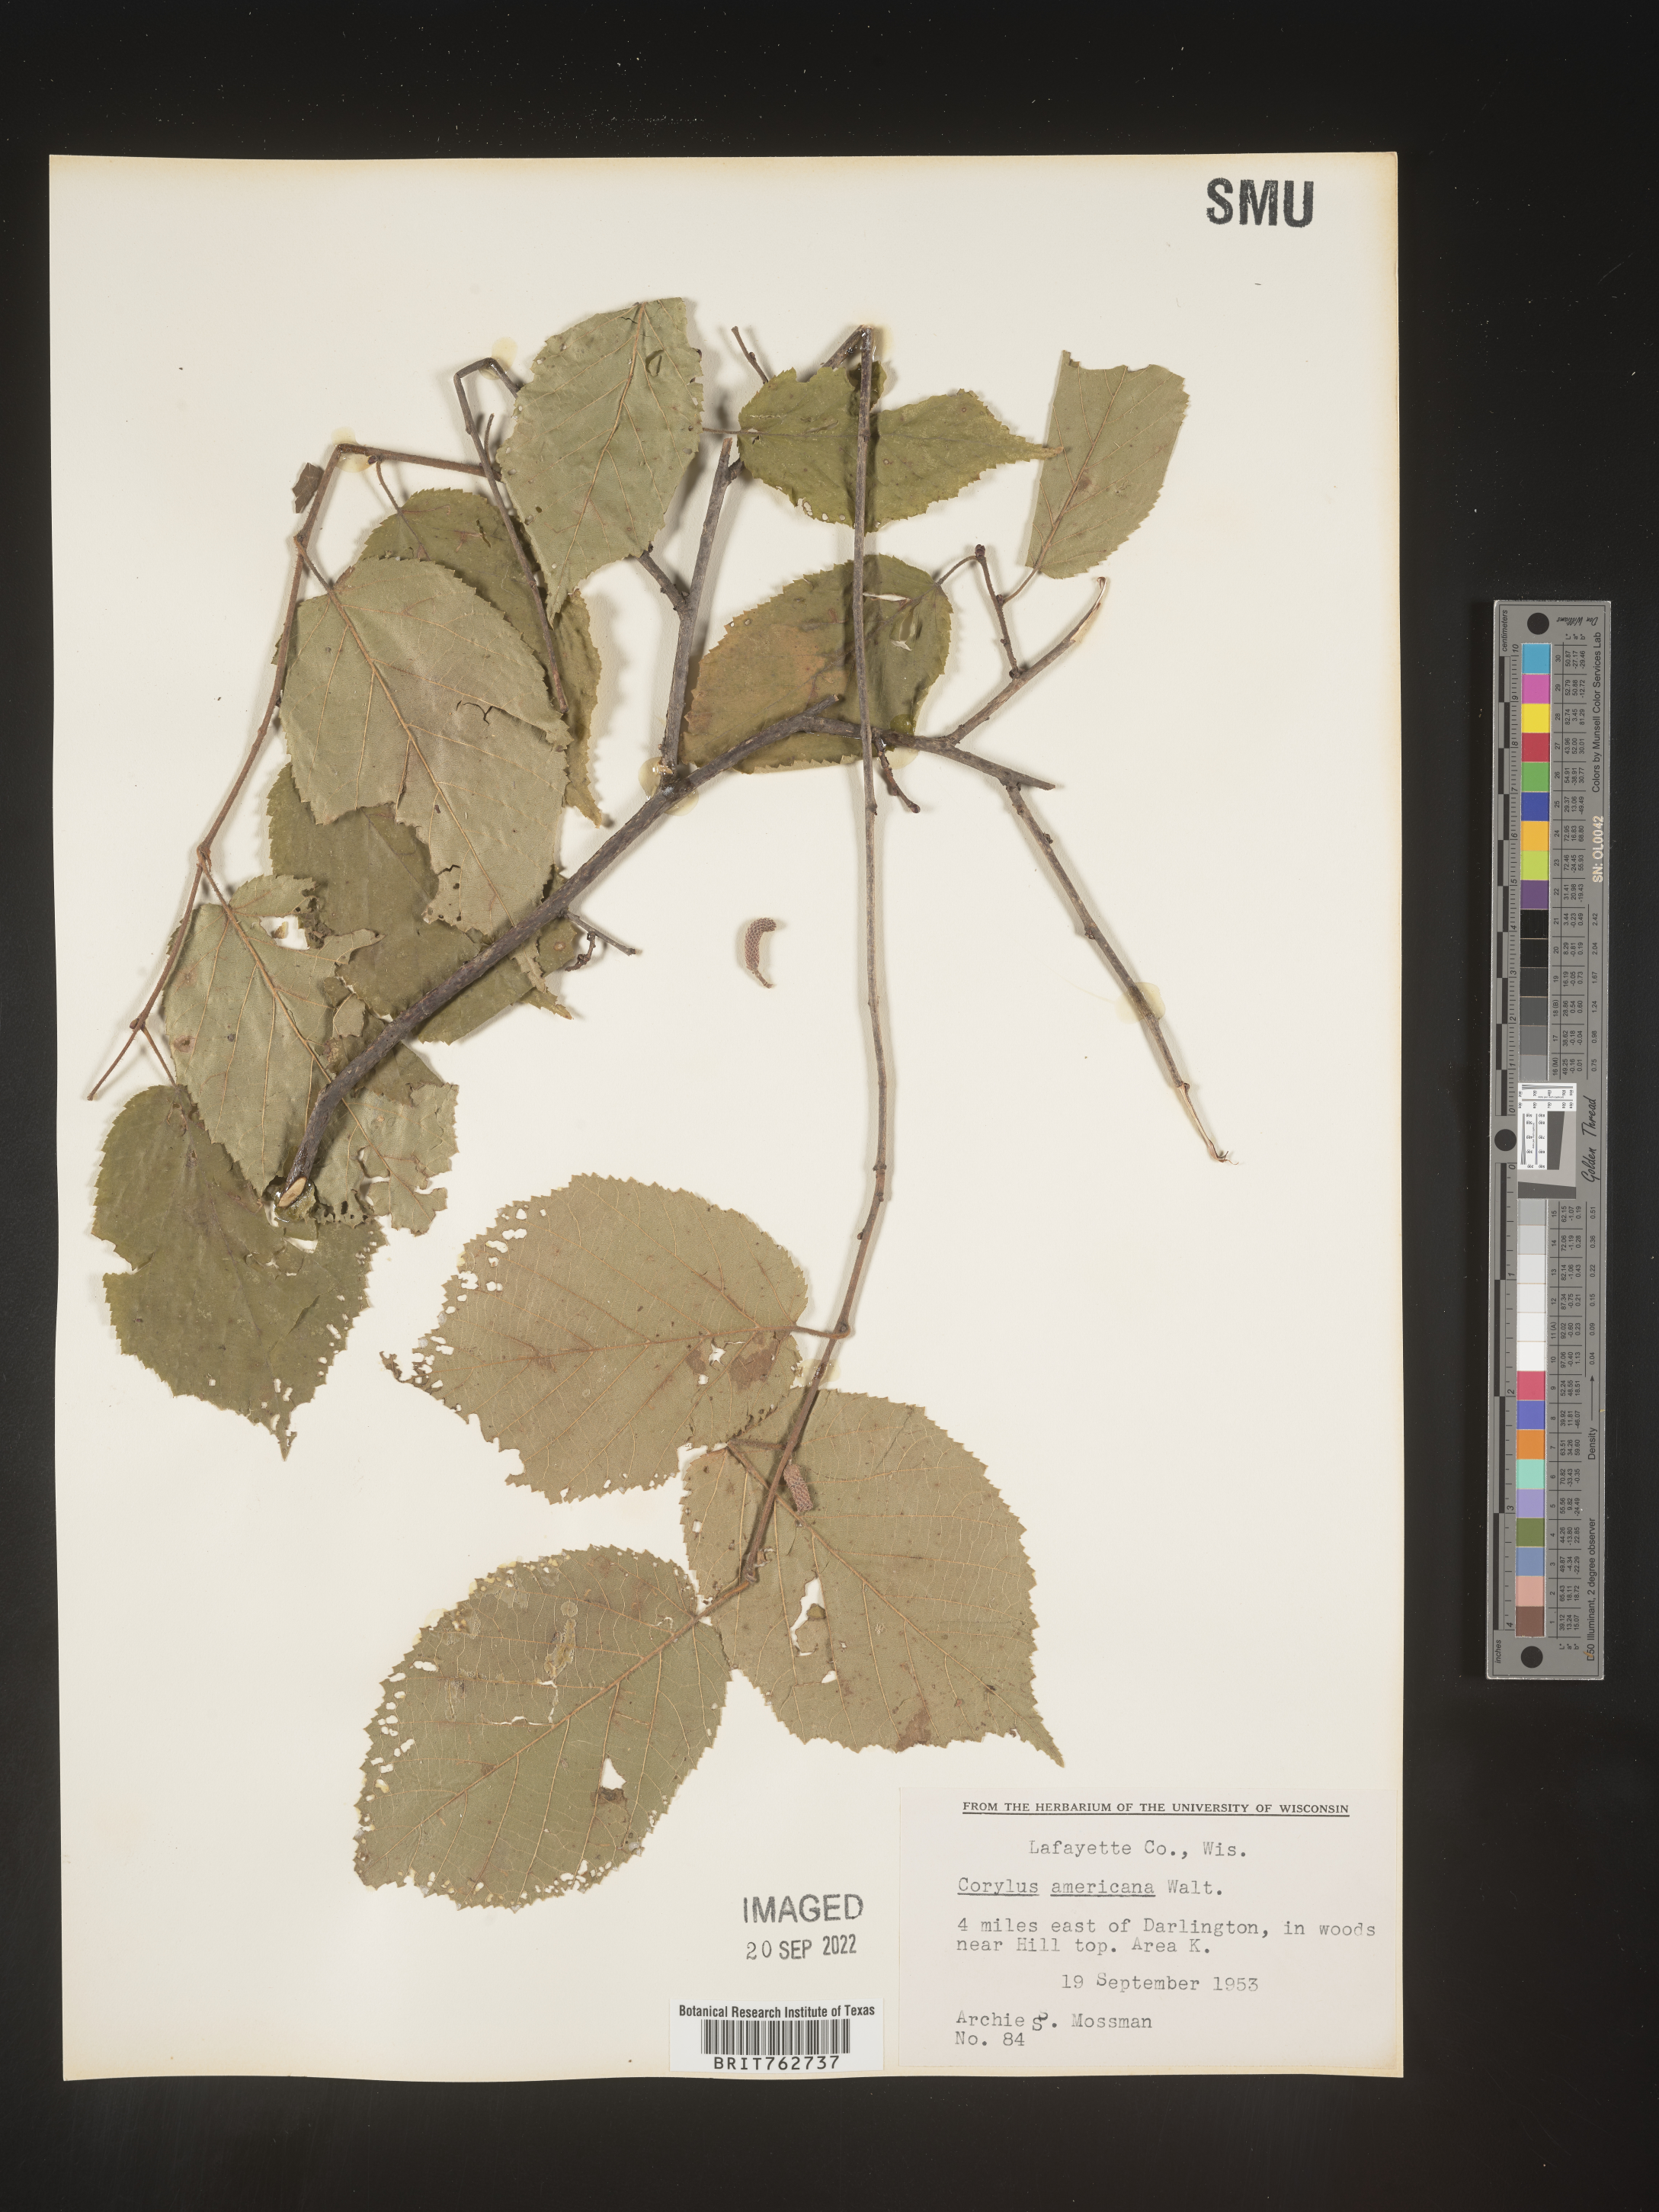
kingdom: Plantae
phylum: Tracheophyta
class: Magnoliopsida
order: Fagales
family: Betulaceae
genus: Corylus
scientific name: Corylus americana
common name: American hazel
